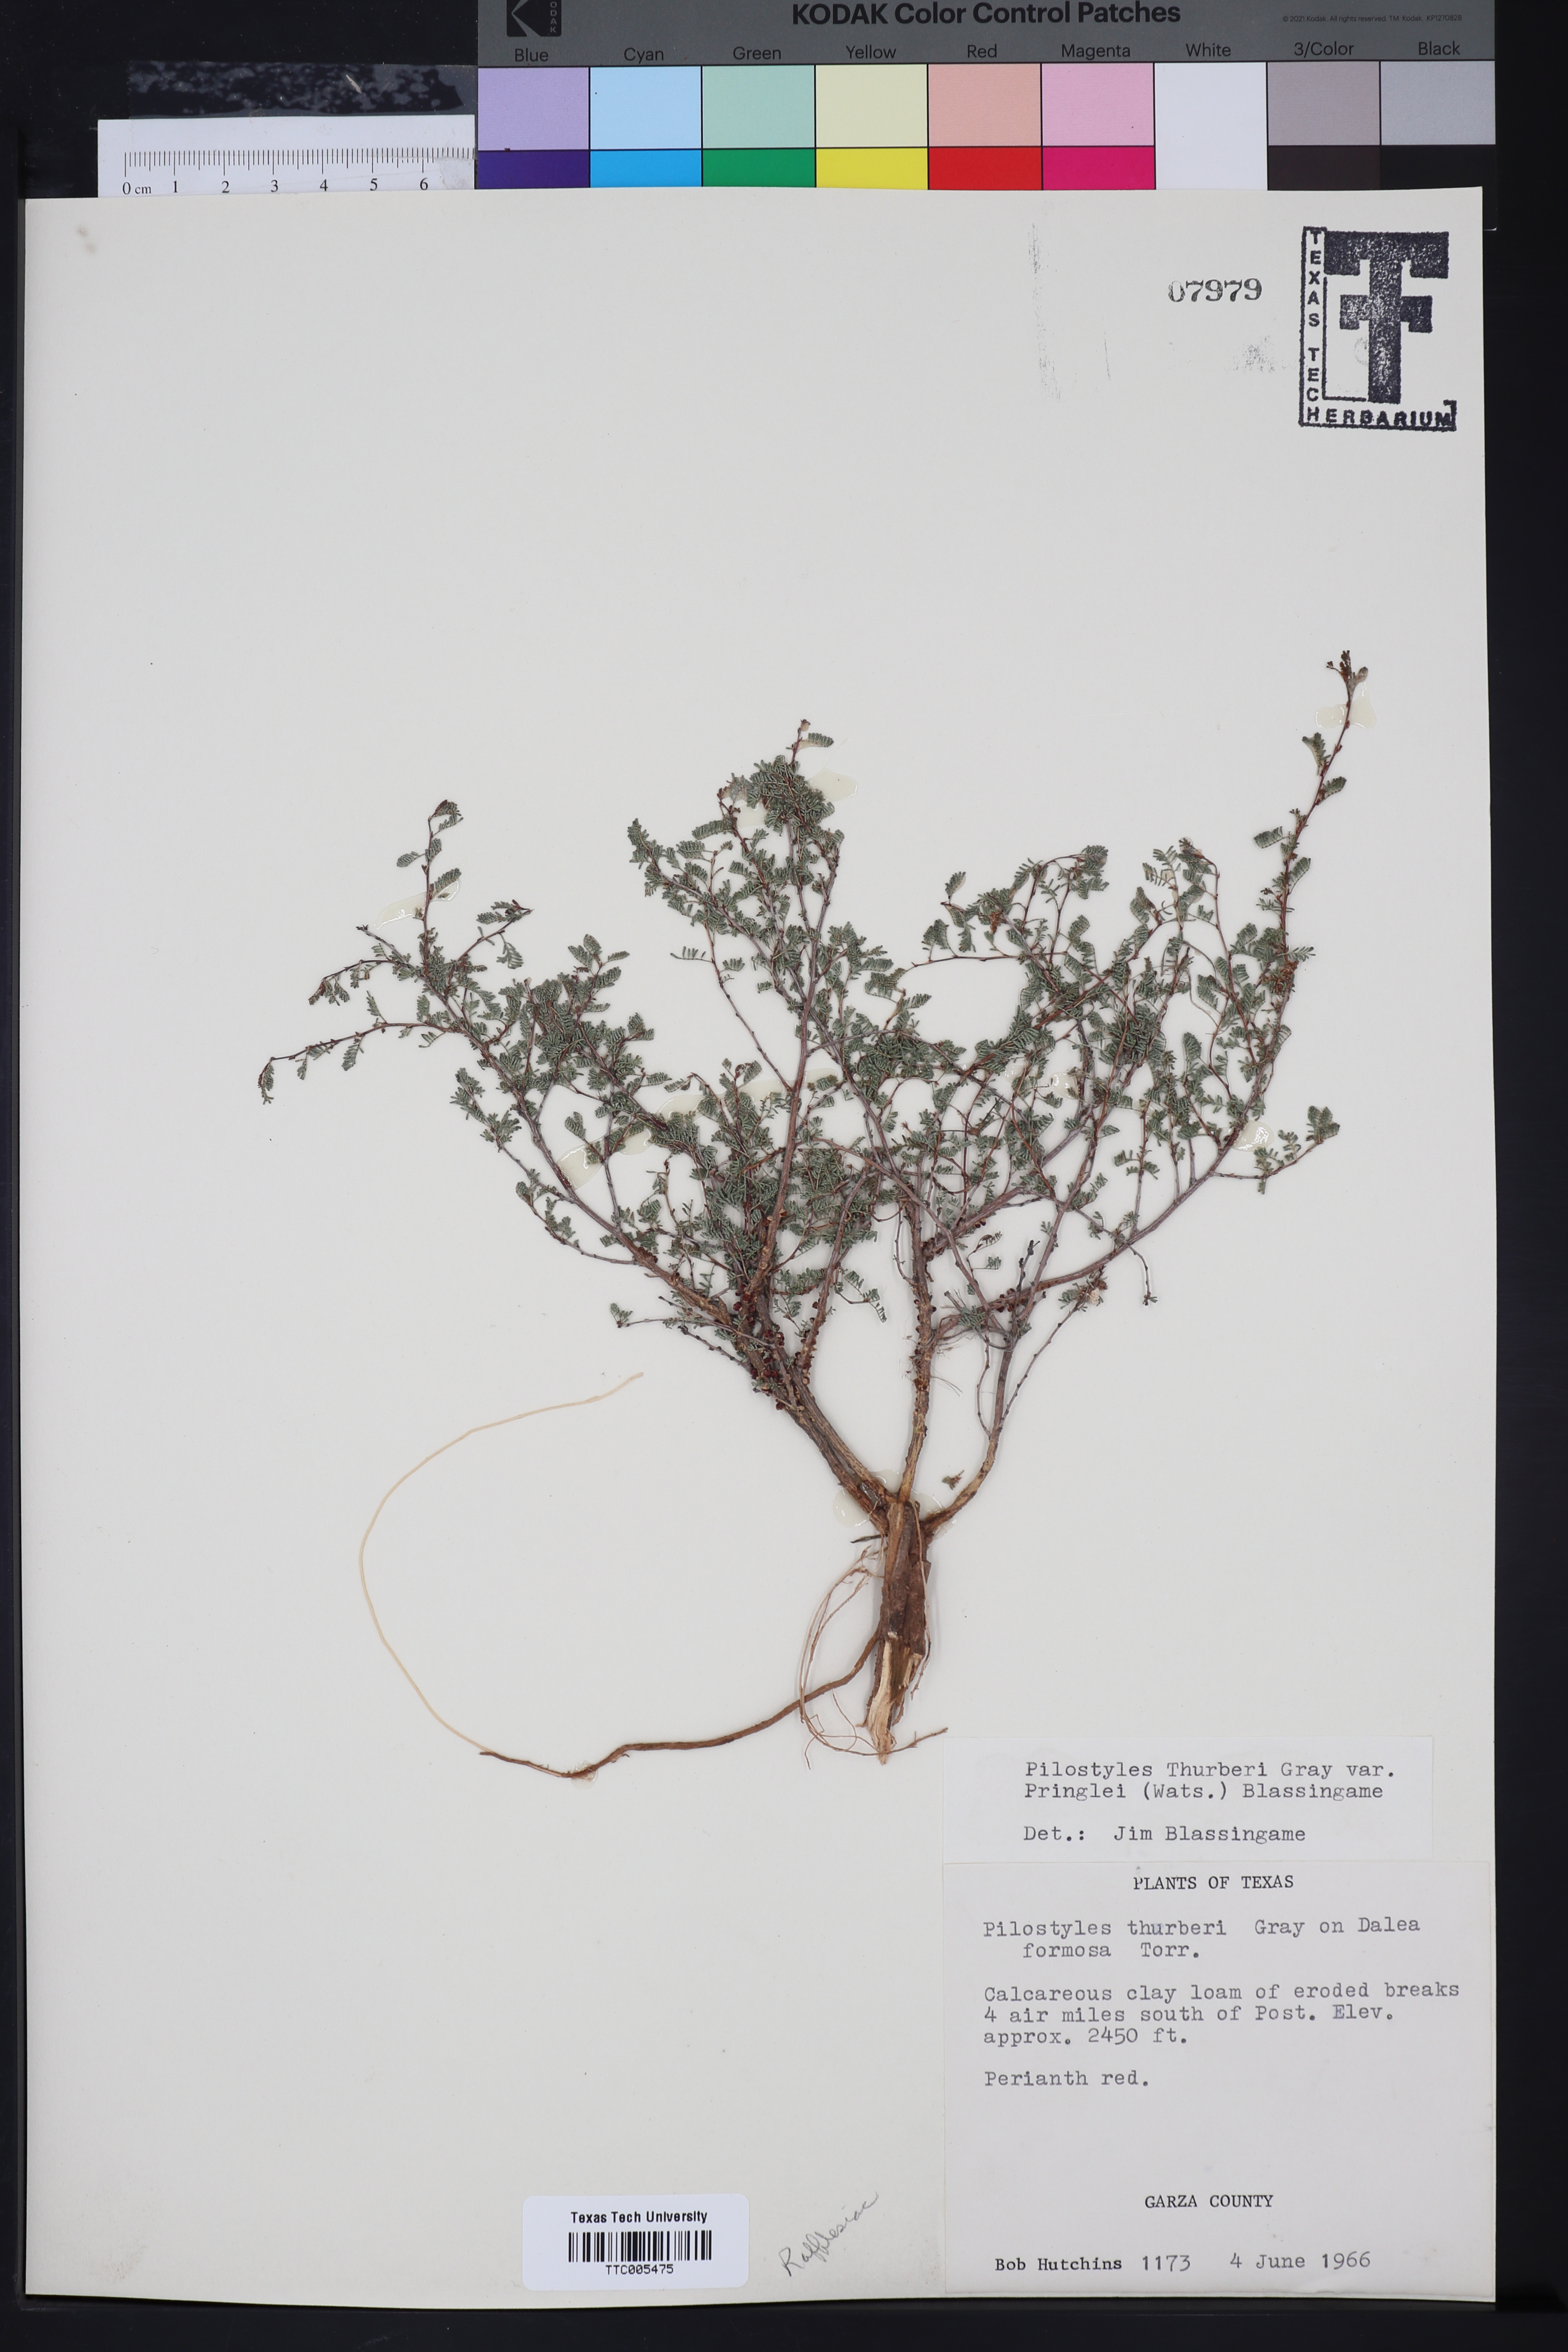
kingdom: Plantae
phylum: Tracheophyta
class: Magnoliopsida
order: Cucurbitales
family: Apodanthaceae
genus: Pilostyles
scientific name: Pilostyles thurberi
